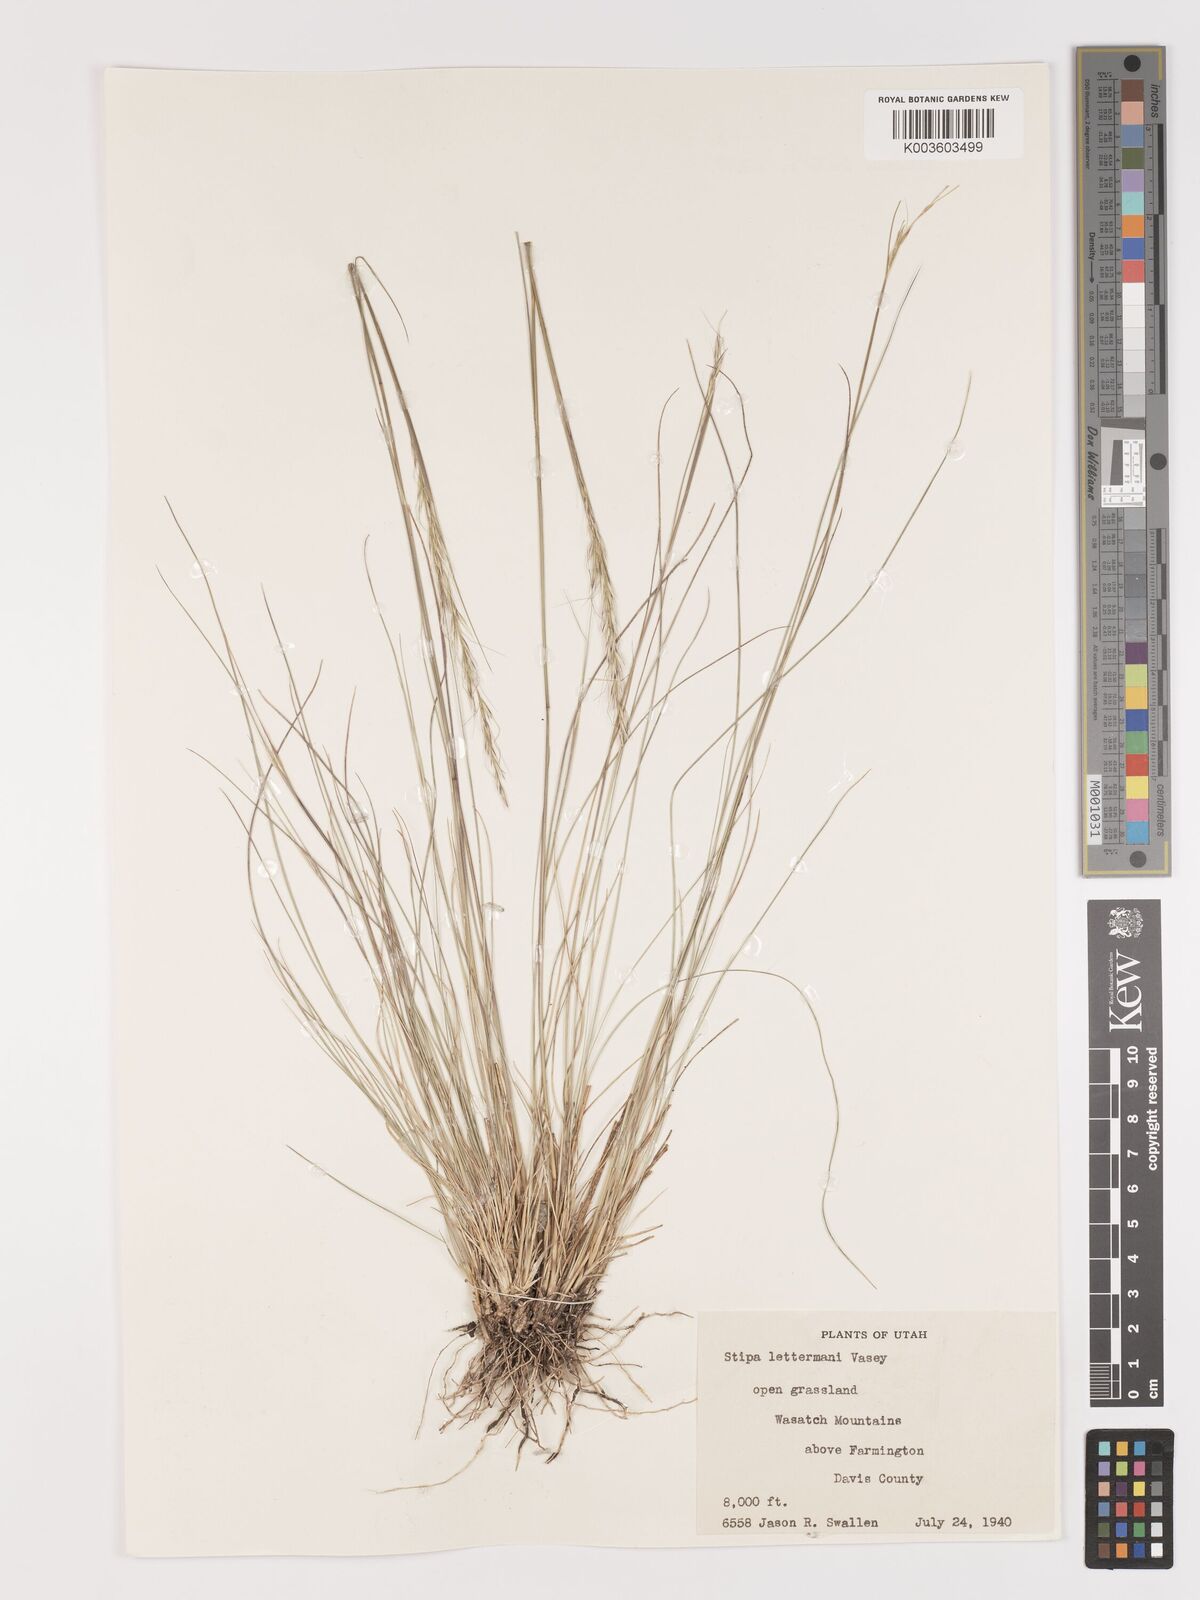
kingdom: Plantae
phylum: Tracheophyta
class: Liliopsida
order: Poales
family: Poaceae
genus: Eriocoma
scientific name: Eriocoma lettermanii
